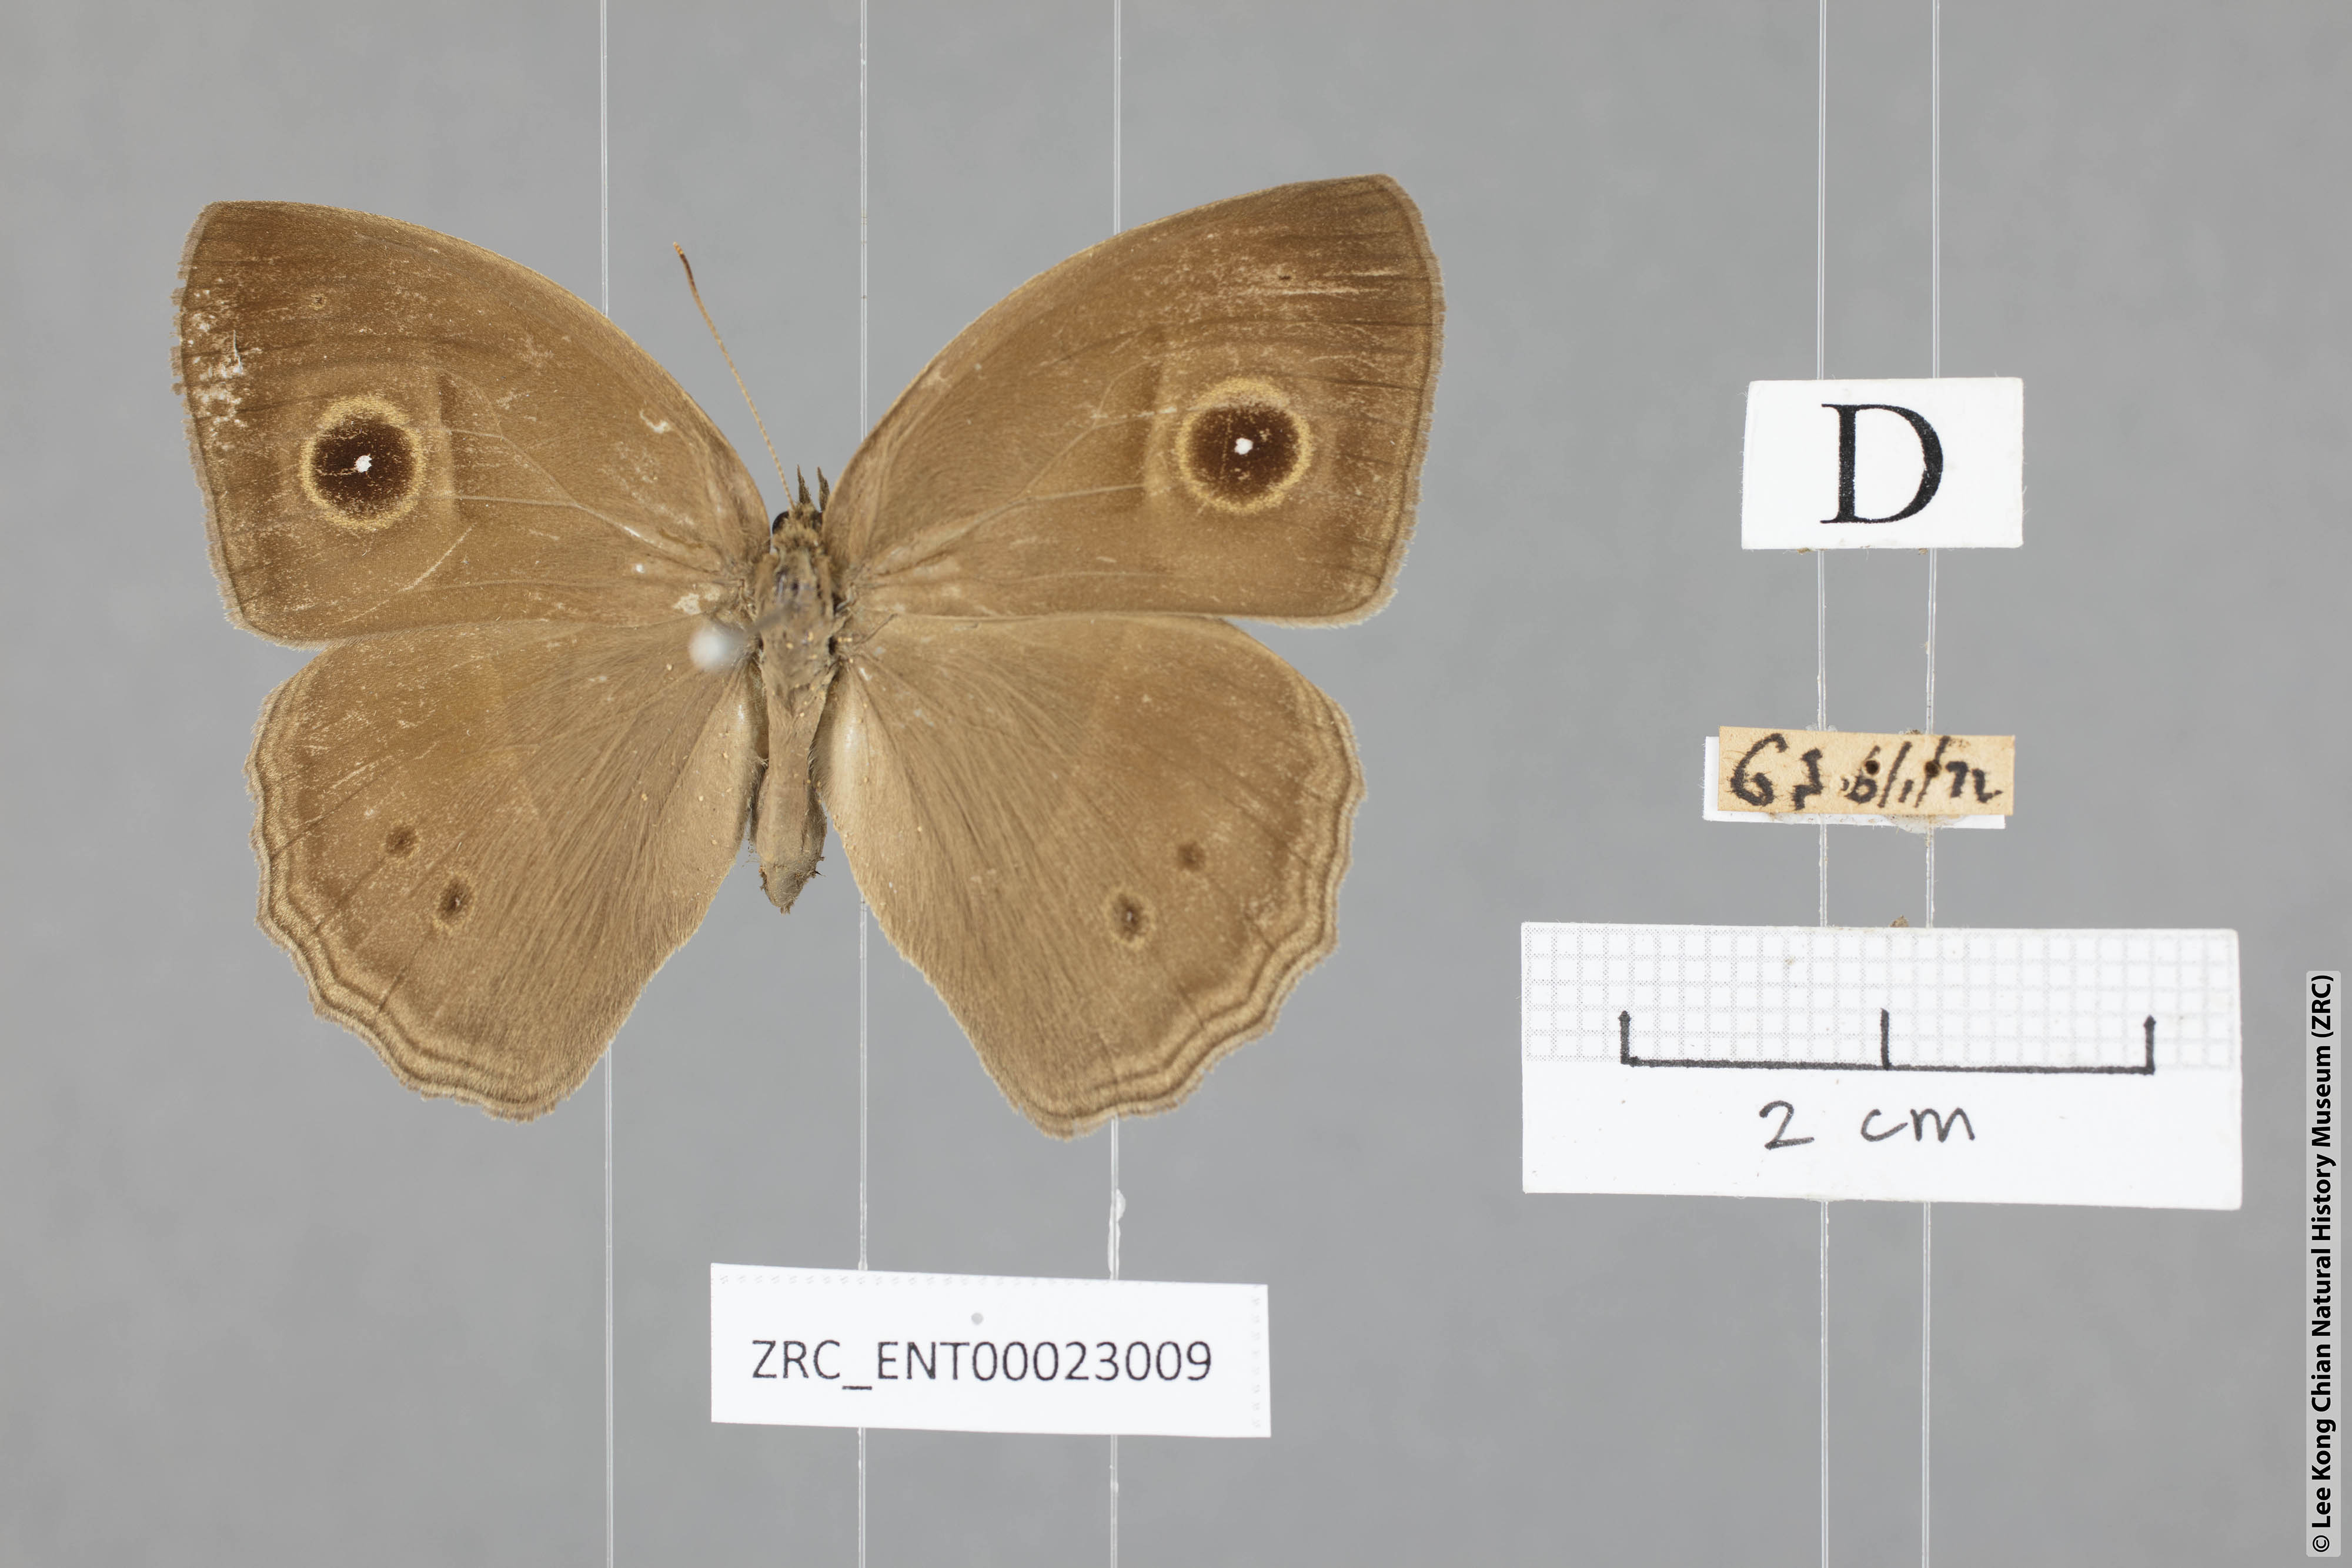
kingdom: Animalia
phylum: Arthropoda
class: Insecta
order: Lepidoptera
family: Nymphalidae
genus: Mycalesis
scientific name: Mycalesis visala
